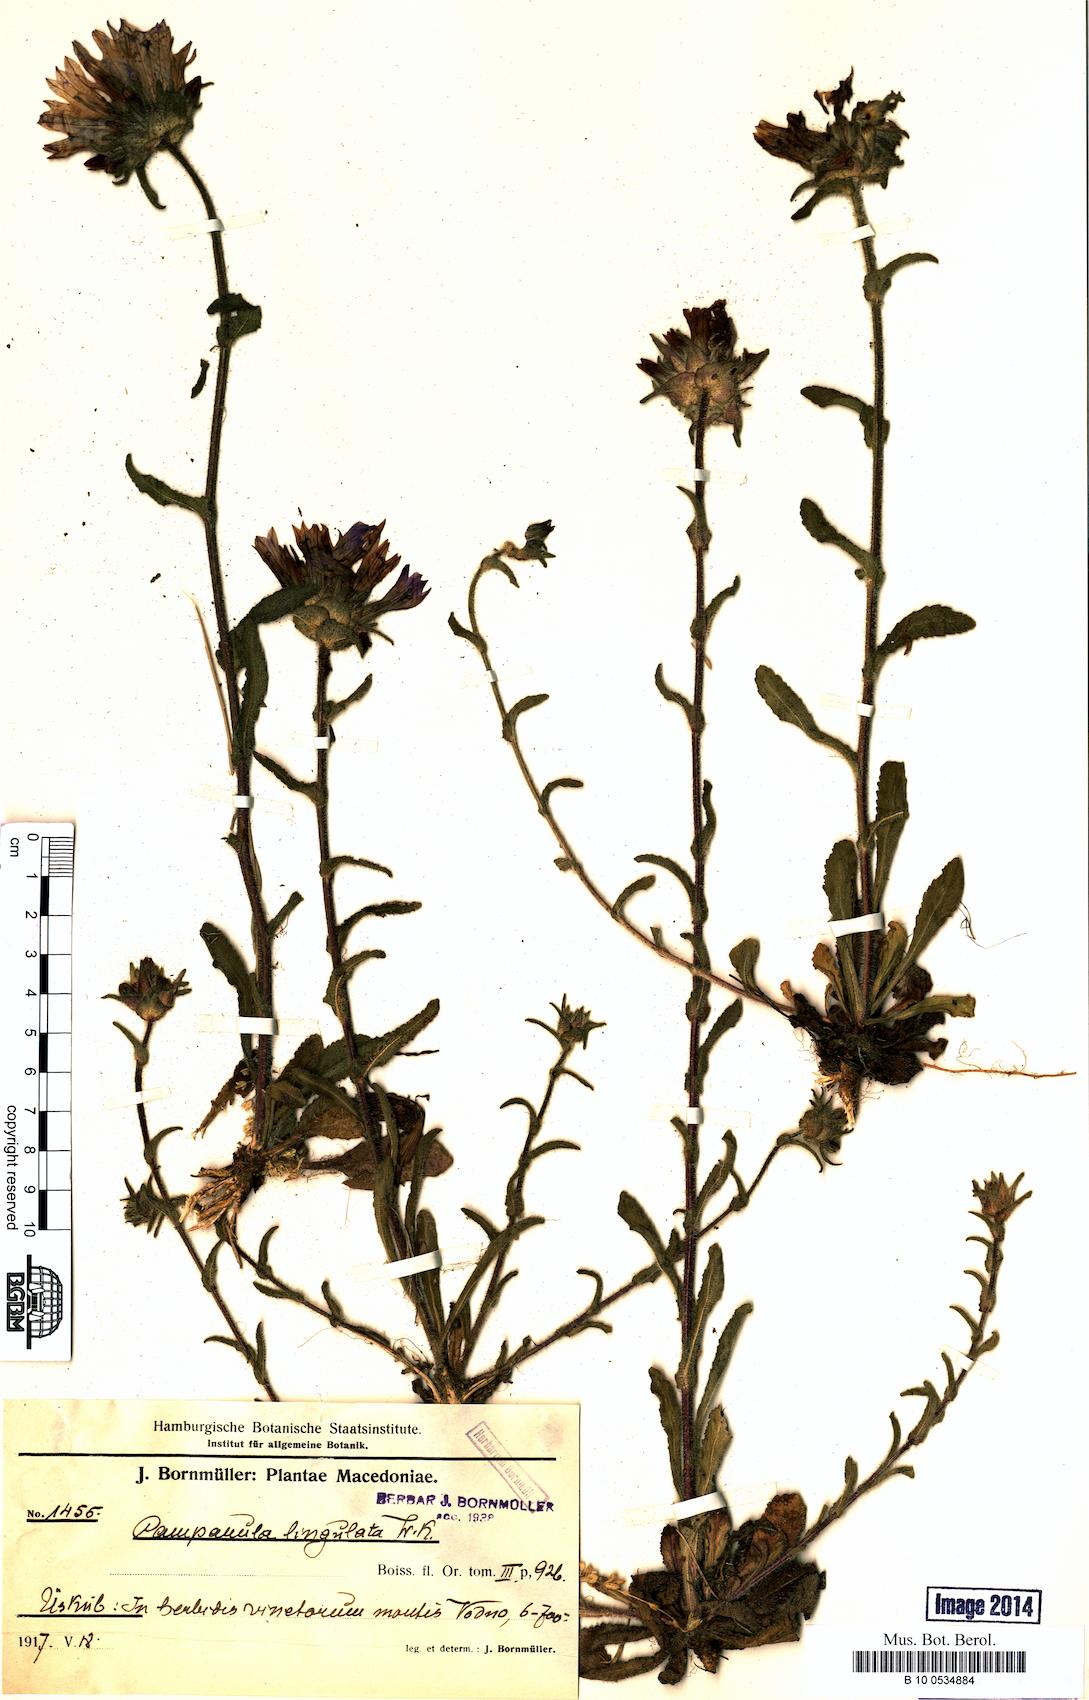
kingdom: Plantae
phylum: Tracheophyta
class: Magnoliopsida
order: Asterales
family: Campanulaceae
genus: Campanula
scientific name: Campanula lingulata
